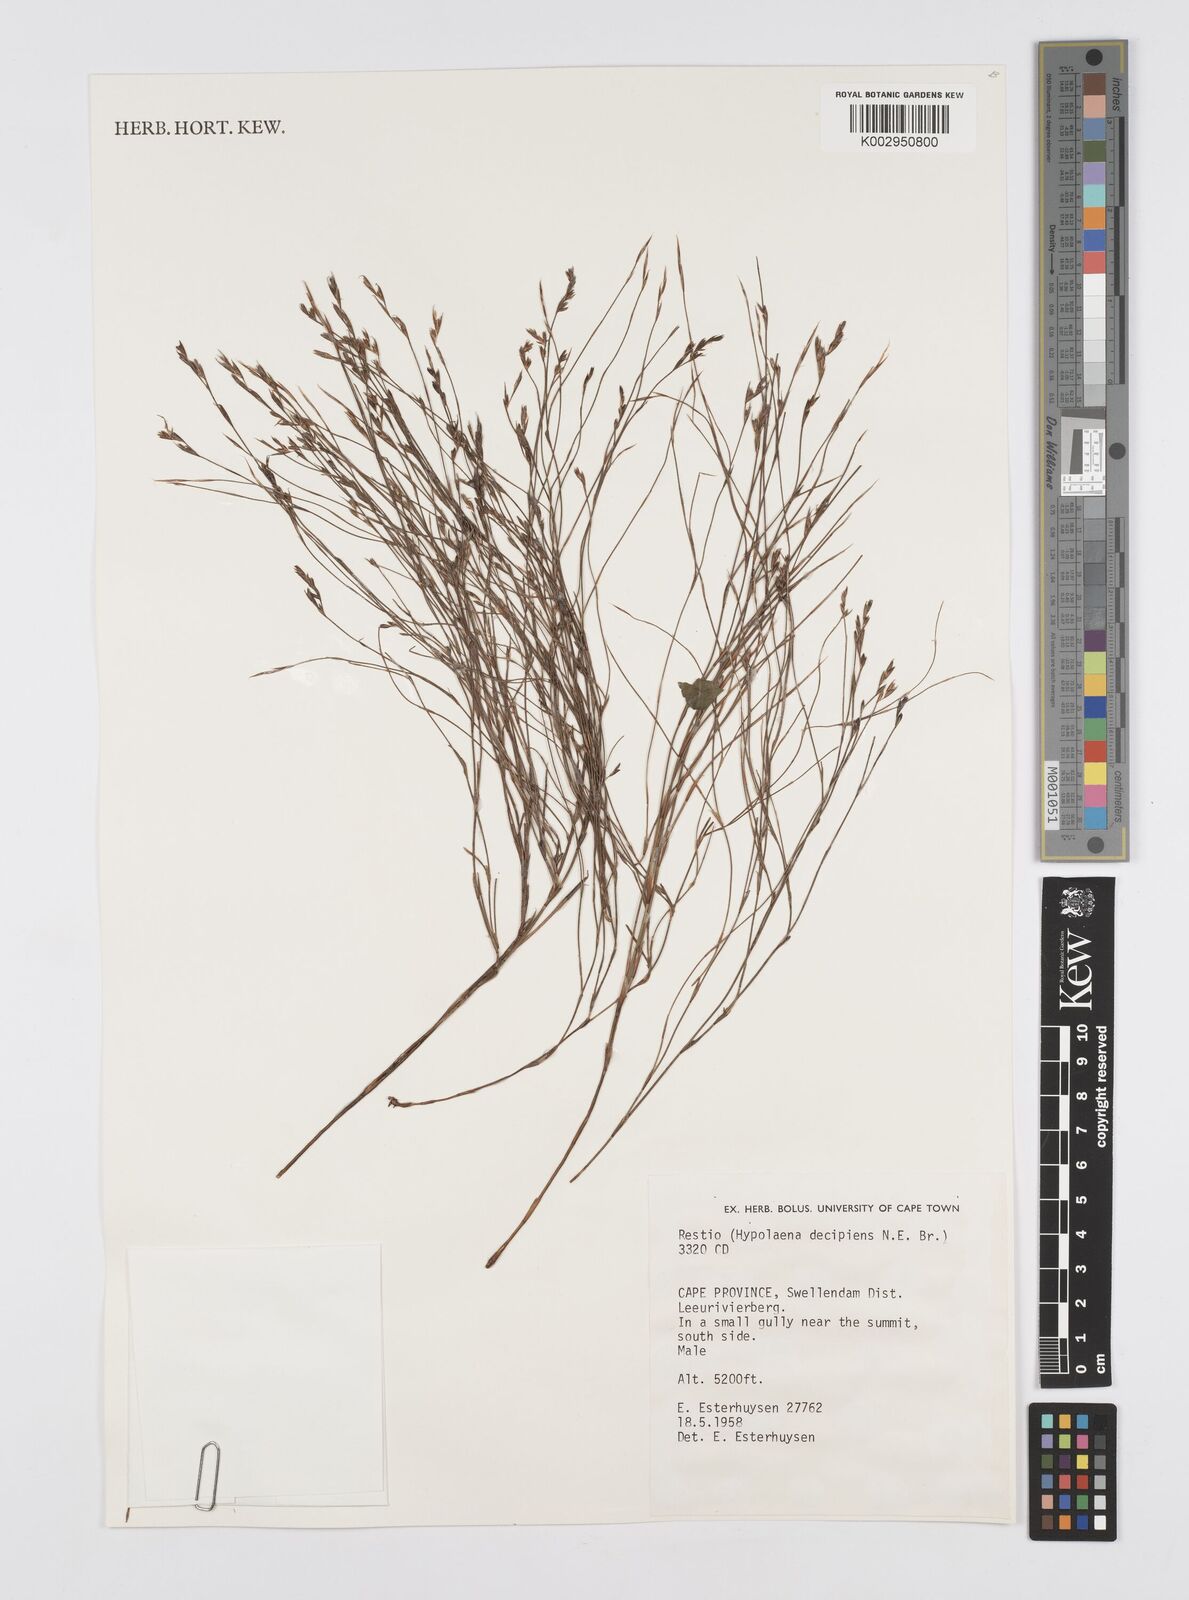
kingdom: Plantae
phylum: Tracheophyta
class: Liliopsida
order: Poales
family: Restionaceae
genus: Restio
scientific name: Restio decipiens
